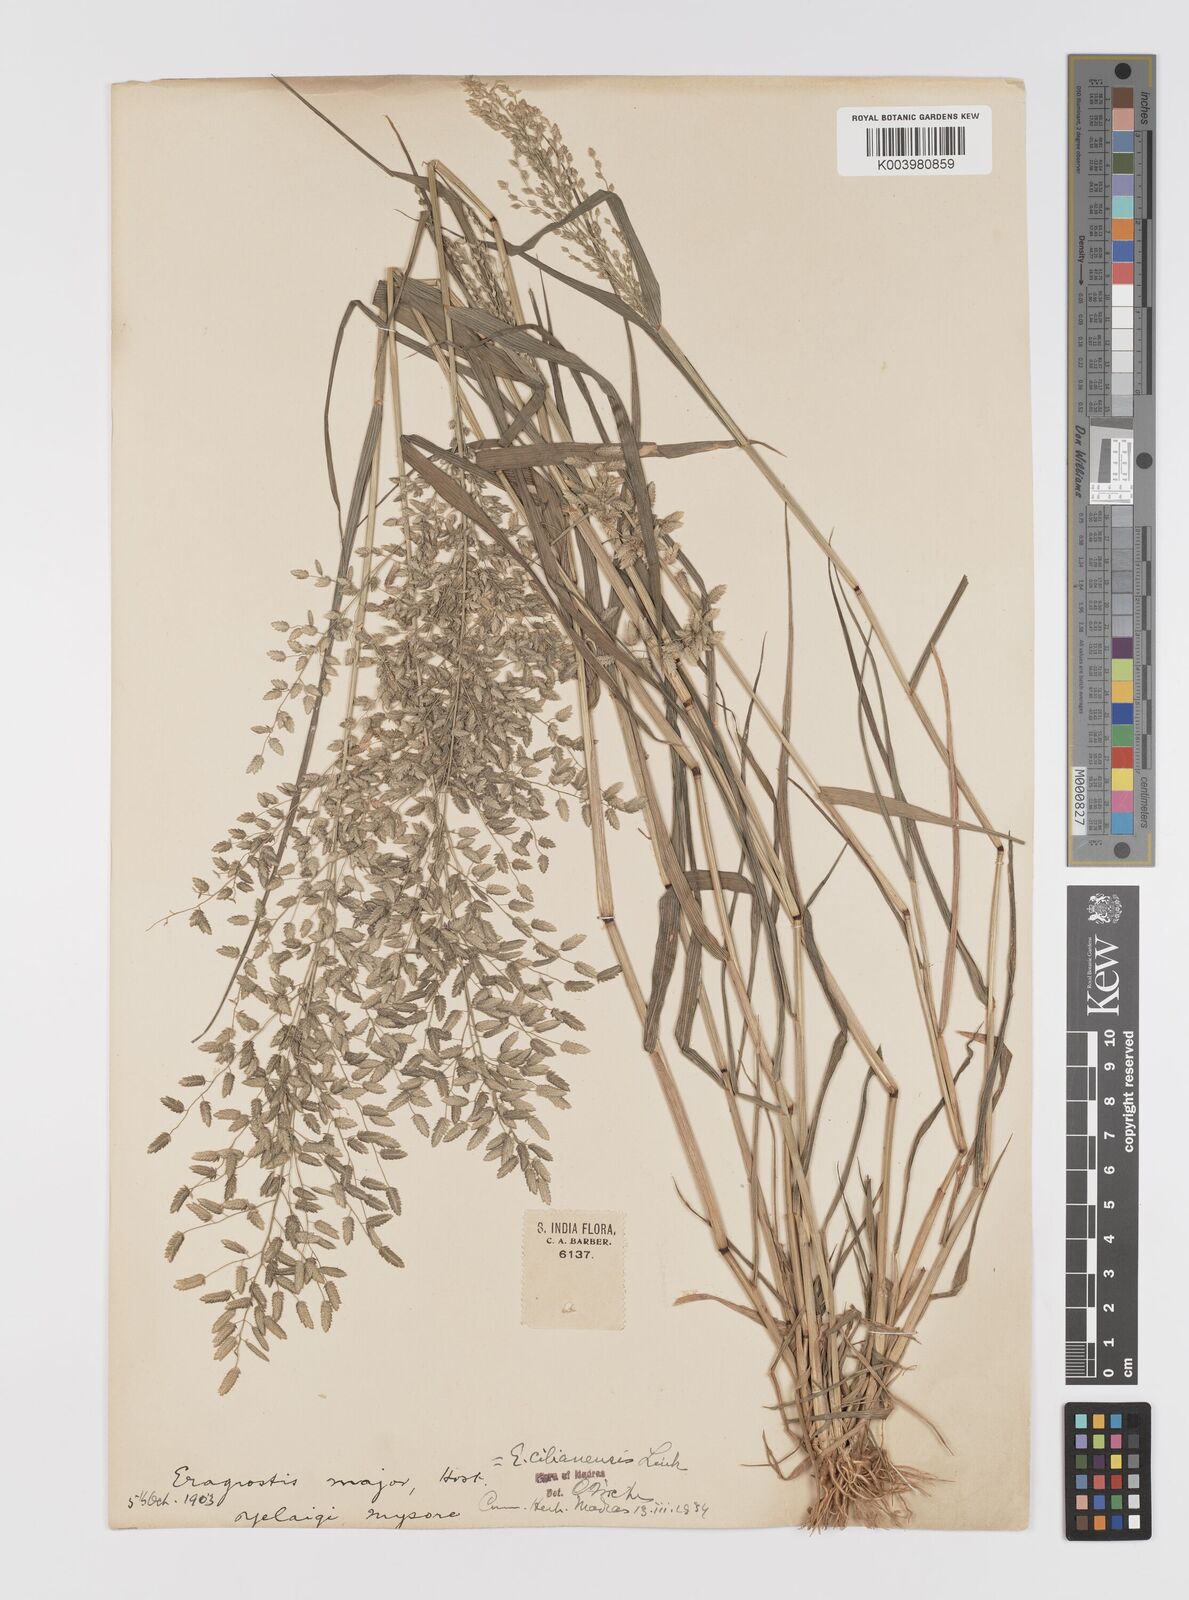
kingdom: Plantae
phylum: Tracheophyta
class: Liliopsida
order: Poales
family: Poaceae
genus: Eragrostis
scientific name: Eragrostis cilianensis
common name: Stinkgrass
